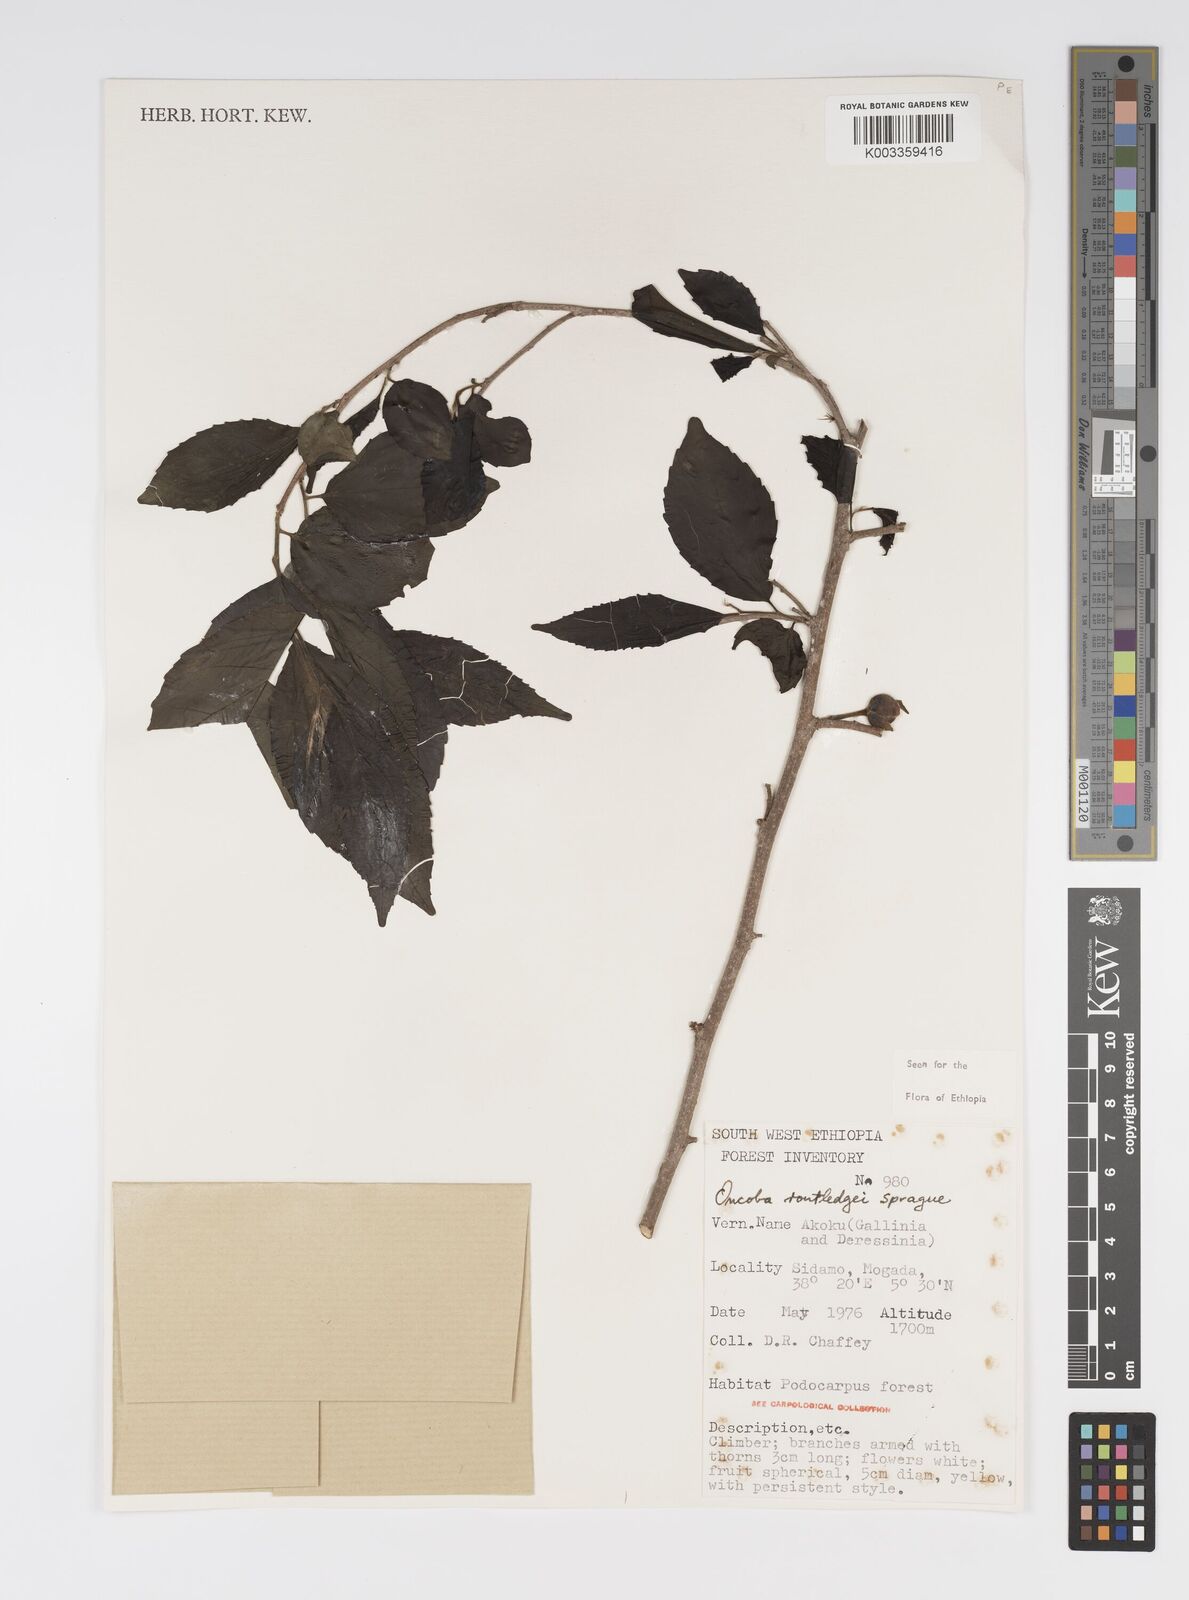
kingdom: Plantae
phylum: Tracheophyta
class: Magnoliopsida
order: Malpighiales
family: Salicaceae
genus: Oncoba
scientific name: Oncoba routledgei
